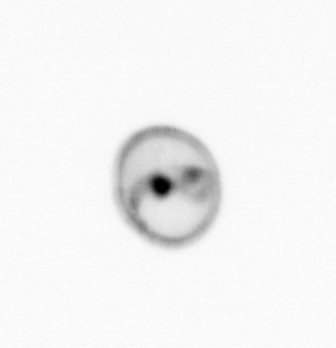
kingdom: Chromista
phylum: Myzozoa
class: Dinophyceae
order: Noctilucales
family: Noctilucaceae
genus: Noctiluca
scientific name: Noctiluca scintillans
